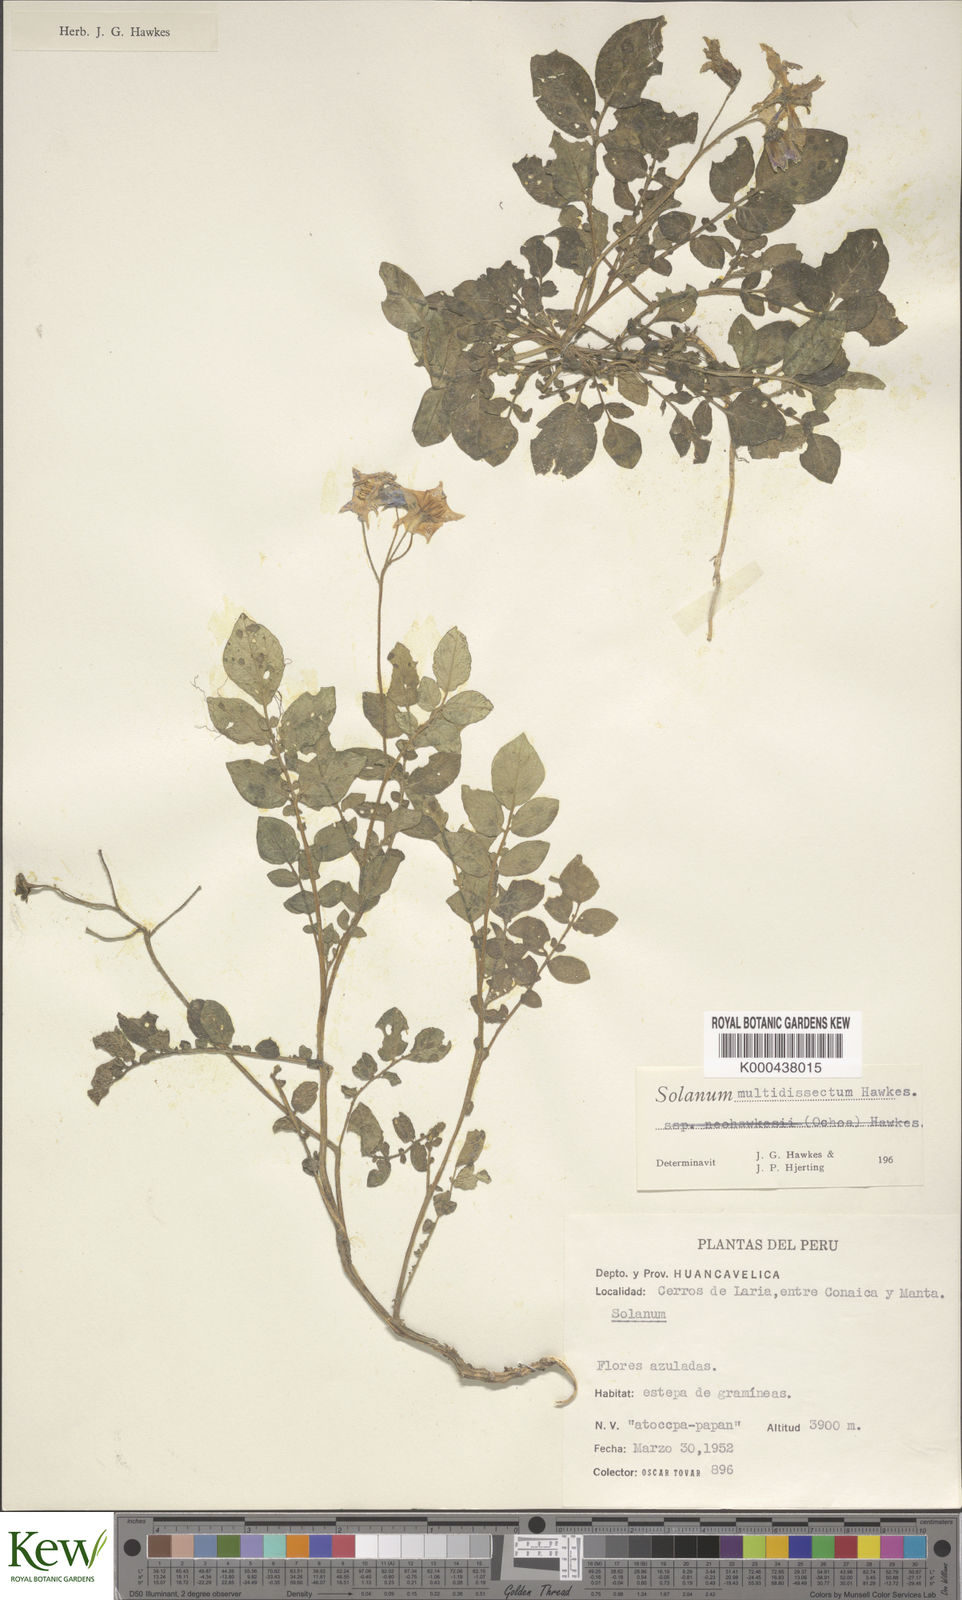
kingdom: Plantae
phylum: Tracheophyta
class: Magnoliopsida
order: Solanales
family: Solanaceae
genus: Solanum
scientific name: Solanum candolleanum
